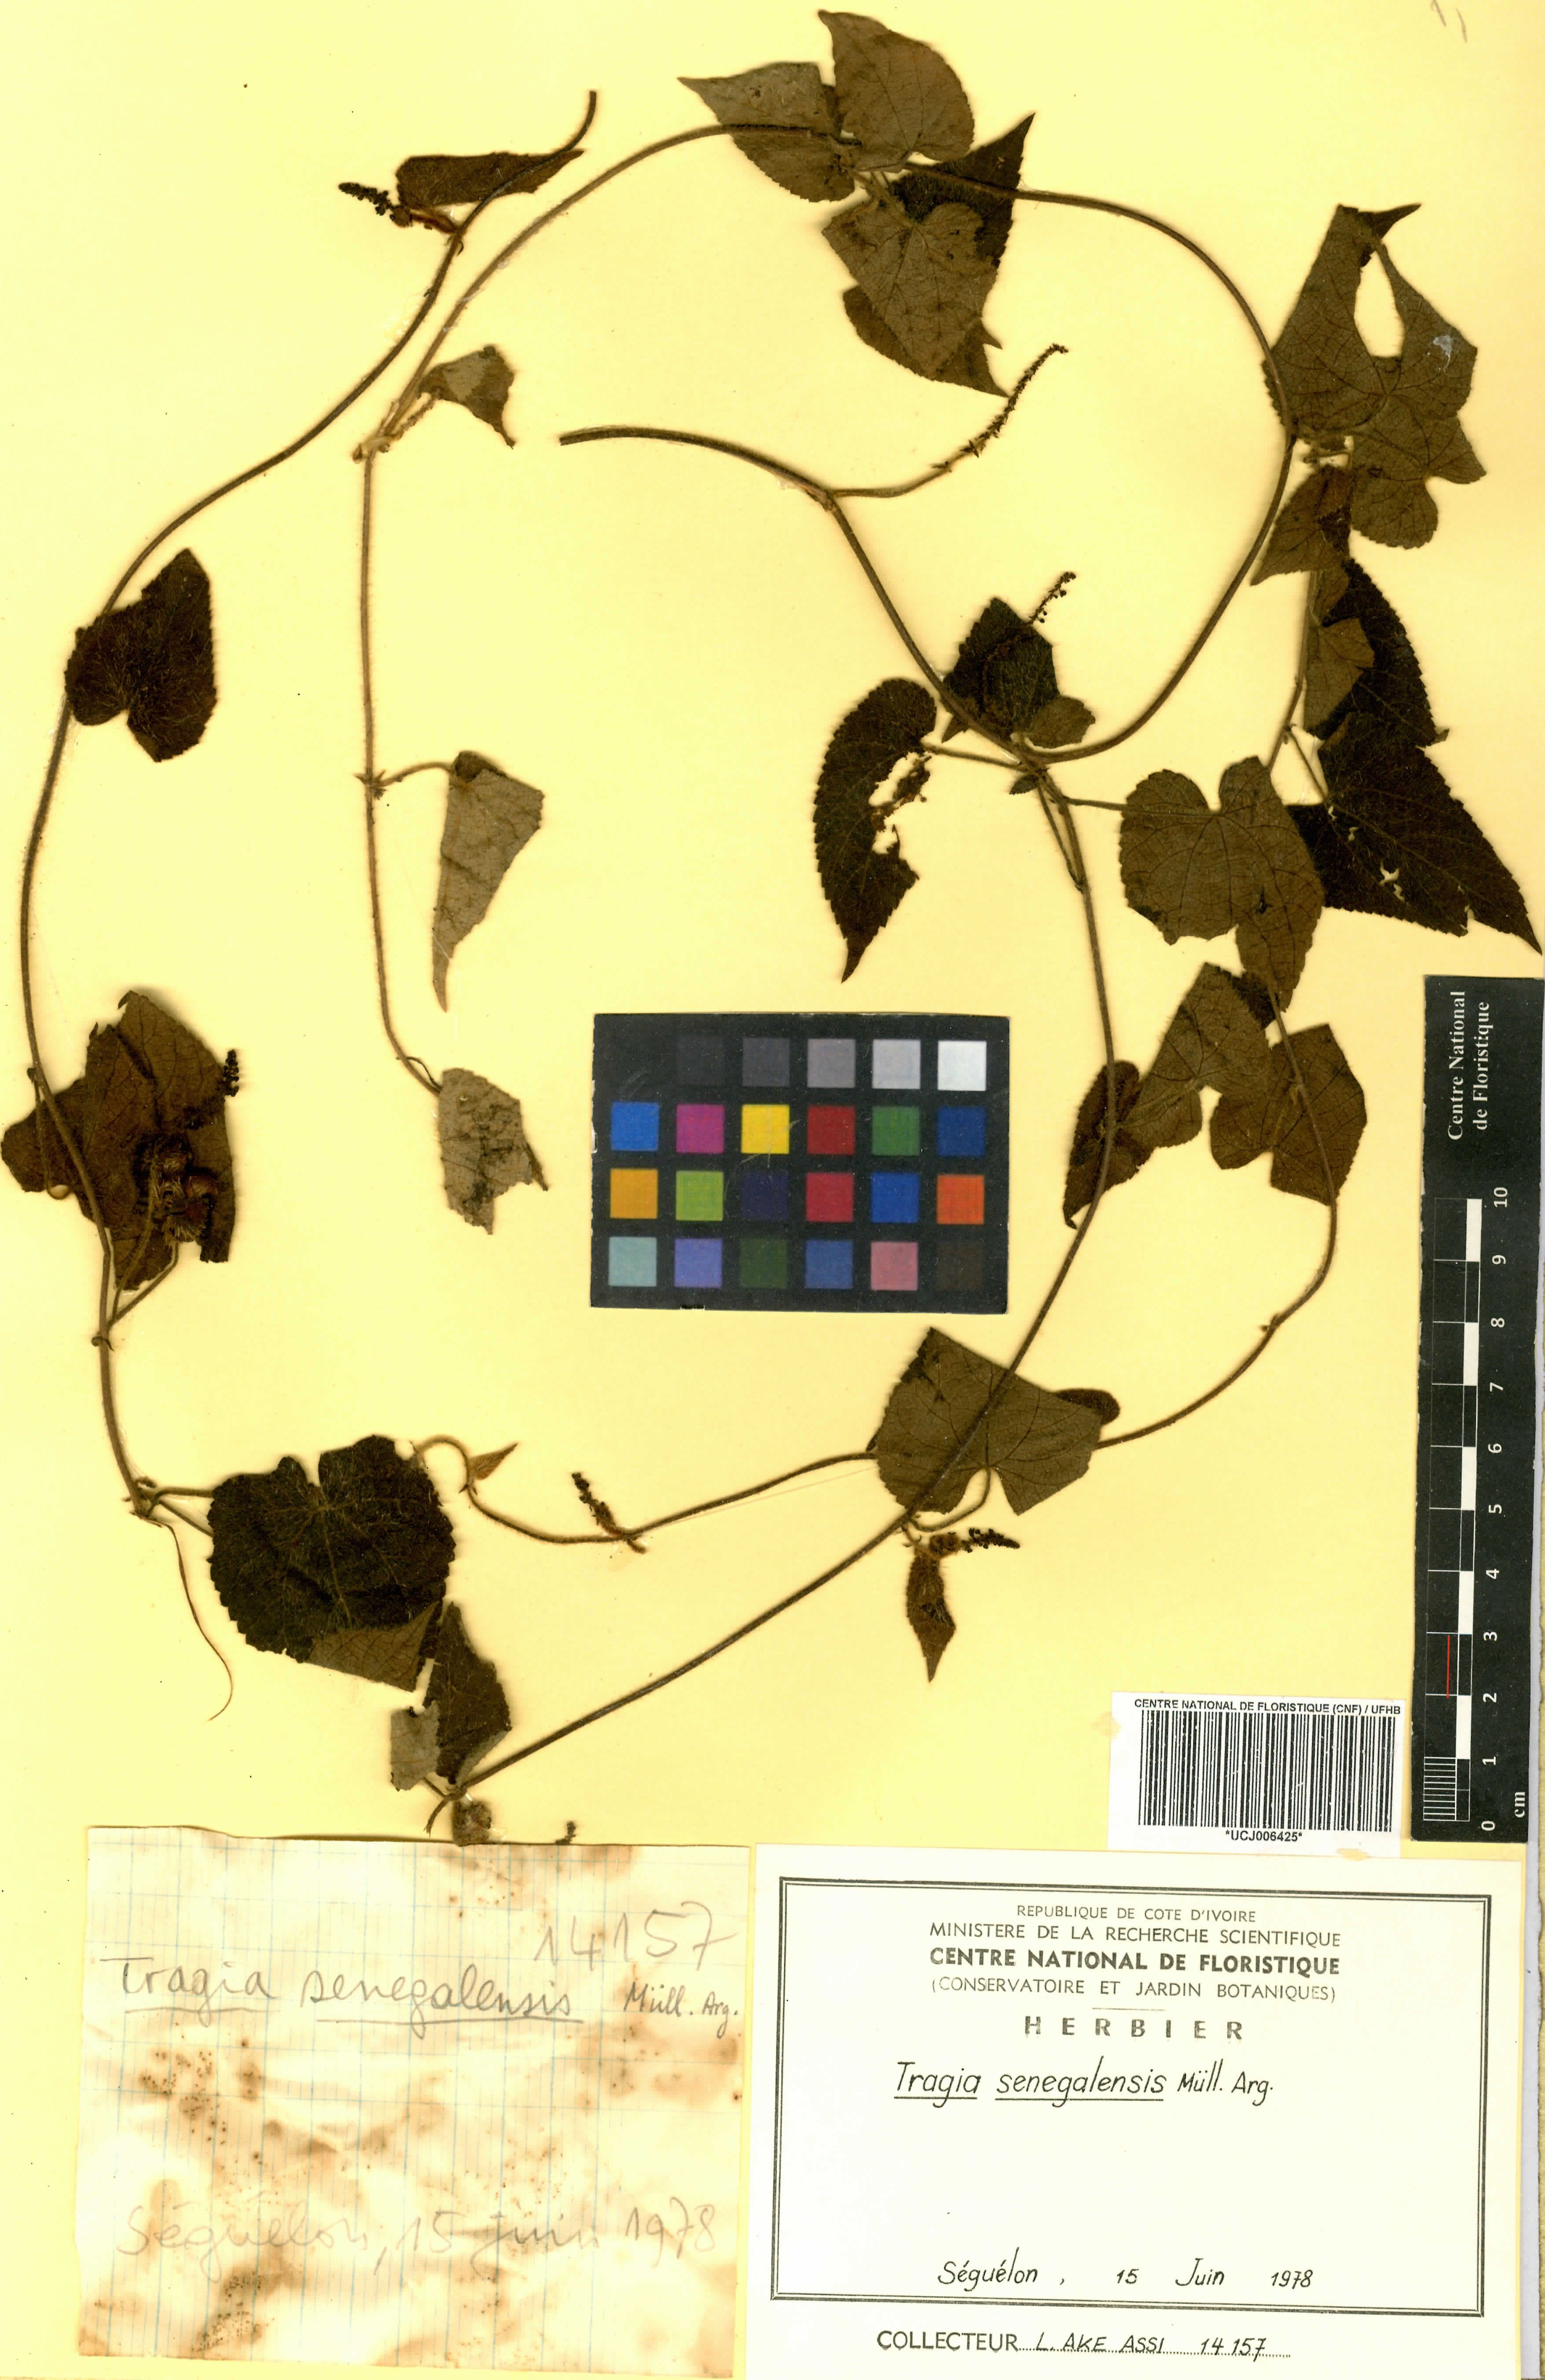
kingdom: Plantae
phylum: Tracheophyta
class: Magnoliopsida
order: Malpighiales
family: Euphorbiaceae
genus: Tragia
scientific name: Tragia senegalensis
